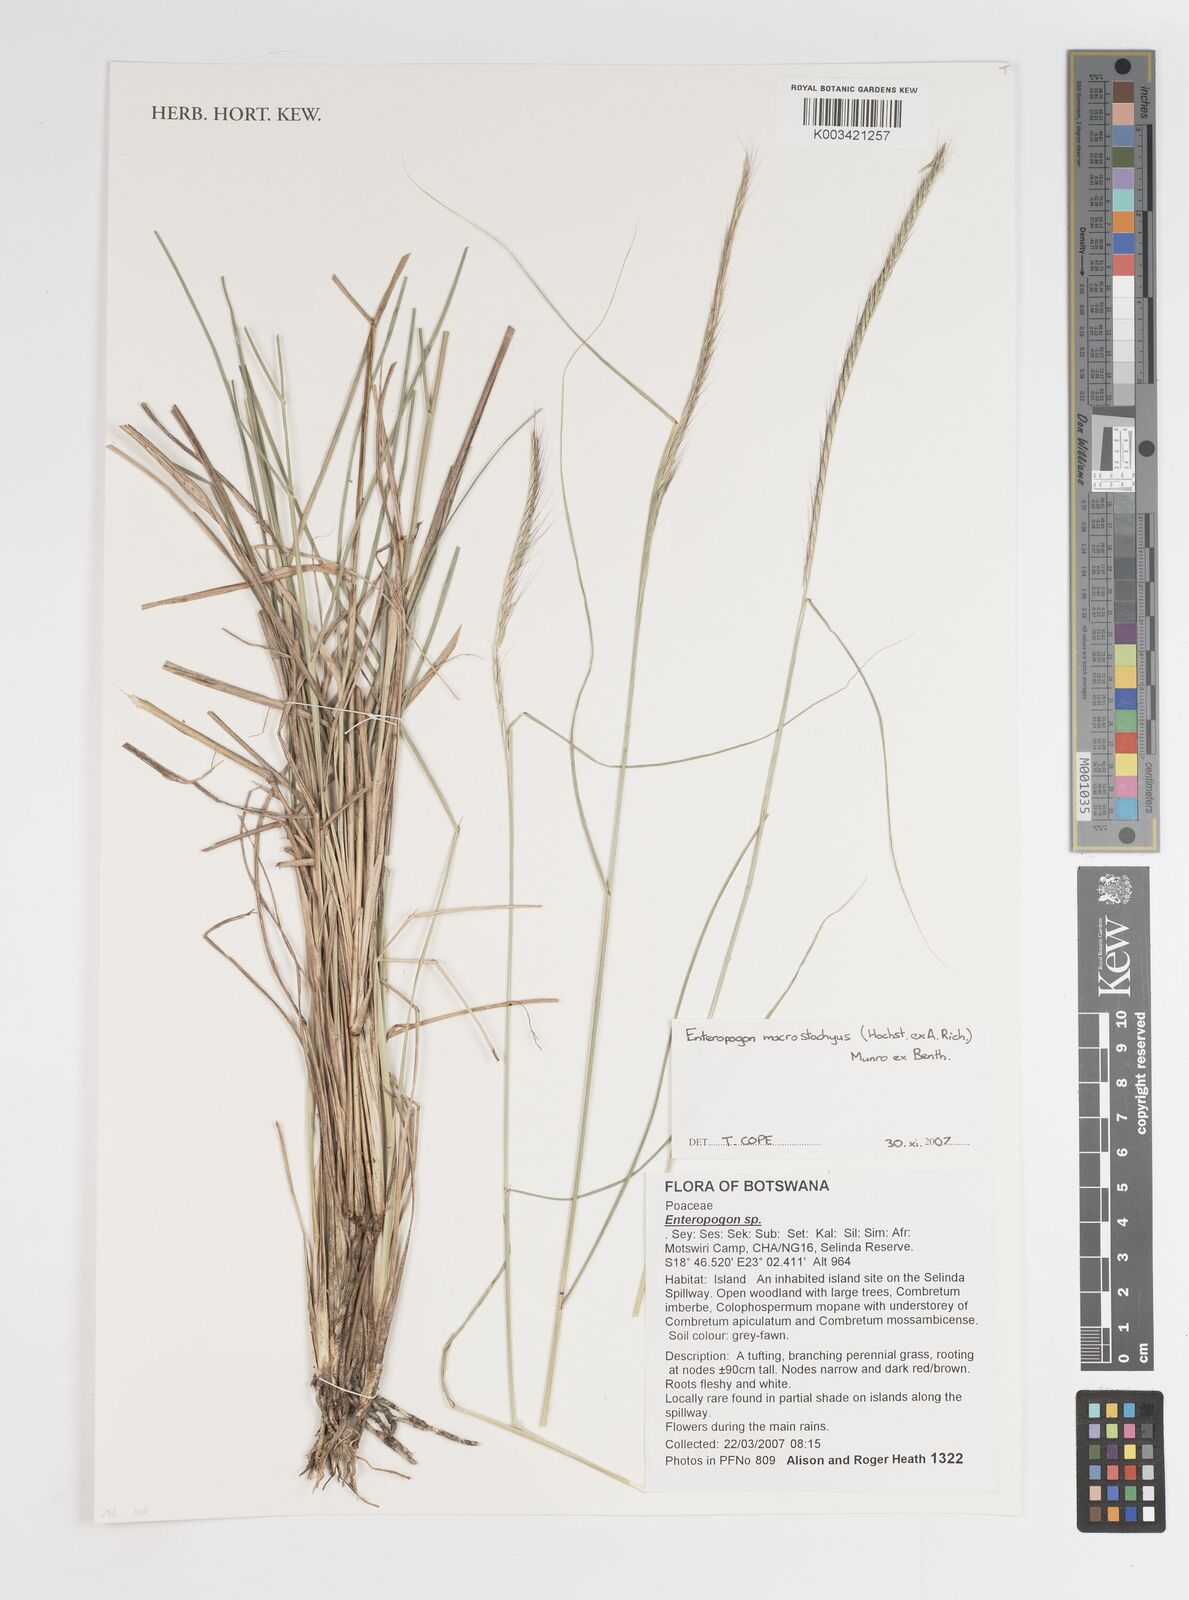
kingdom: Plantae
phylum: Tracheophyta
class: Liliopsida
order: Poales
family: Poaceae
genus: Enteropogon
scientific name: Enteropogon macrostachyus
